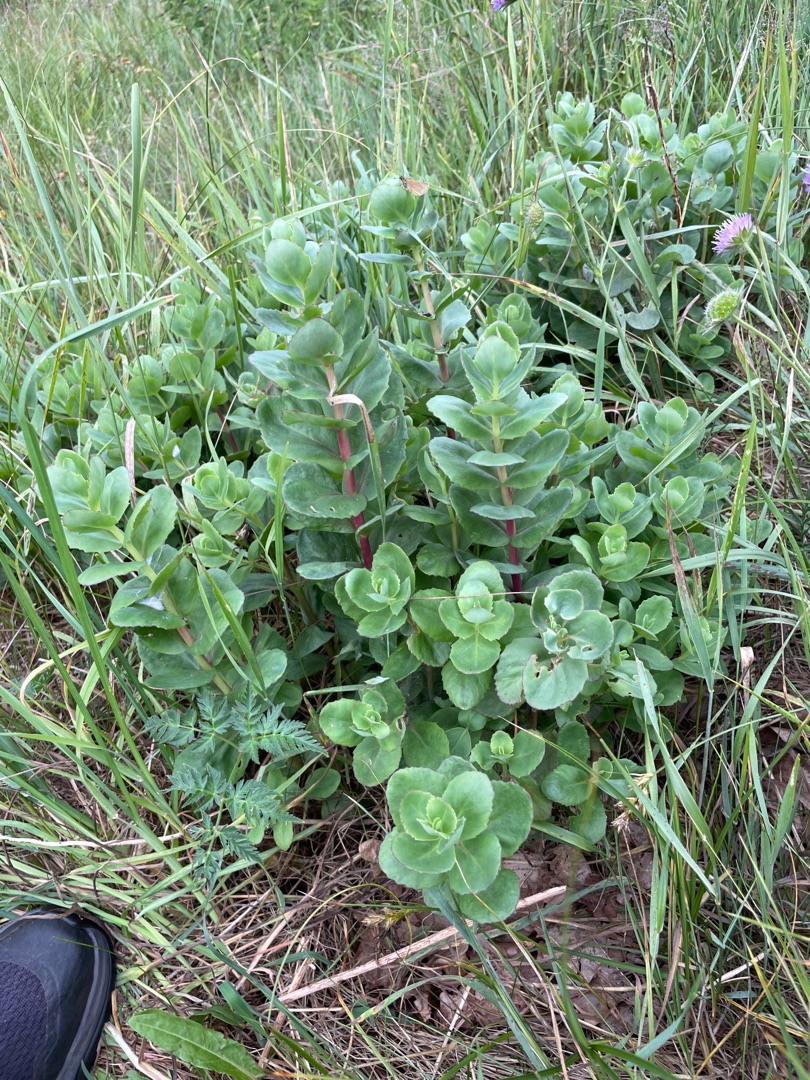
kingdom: Plantae
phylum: Tracheophyta
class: Magnoliopsida
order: Saxifragales
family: Crassulaceae
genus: Hylotelephium
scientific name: Hylotelephium maximum
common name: Almindelig sankthansurt
